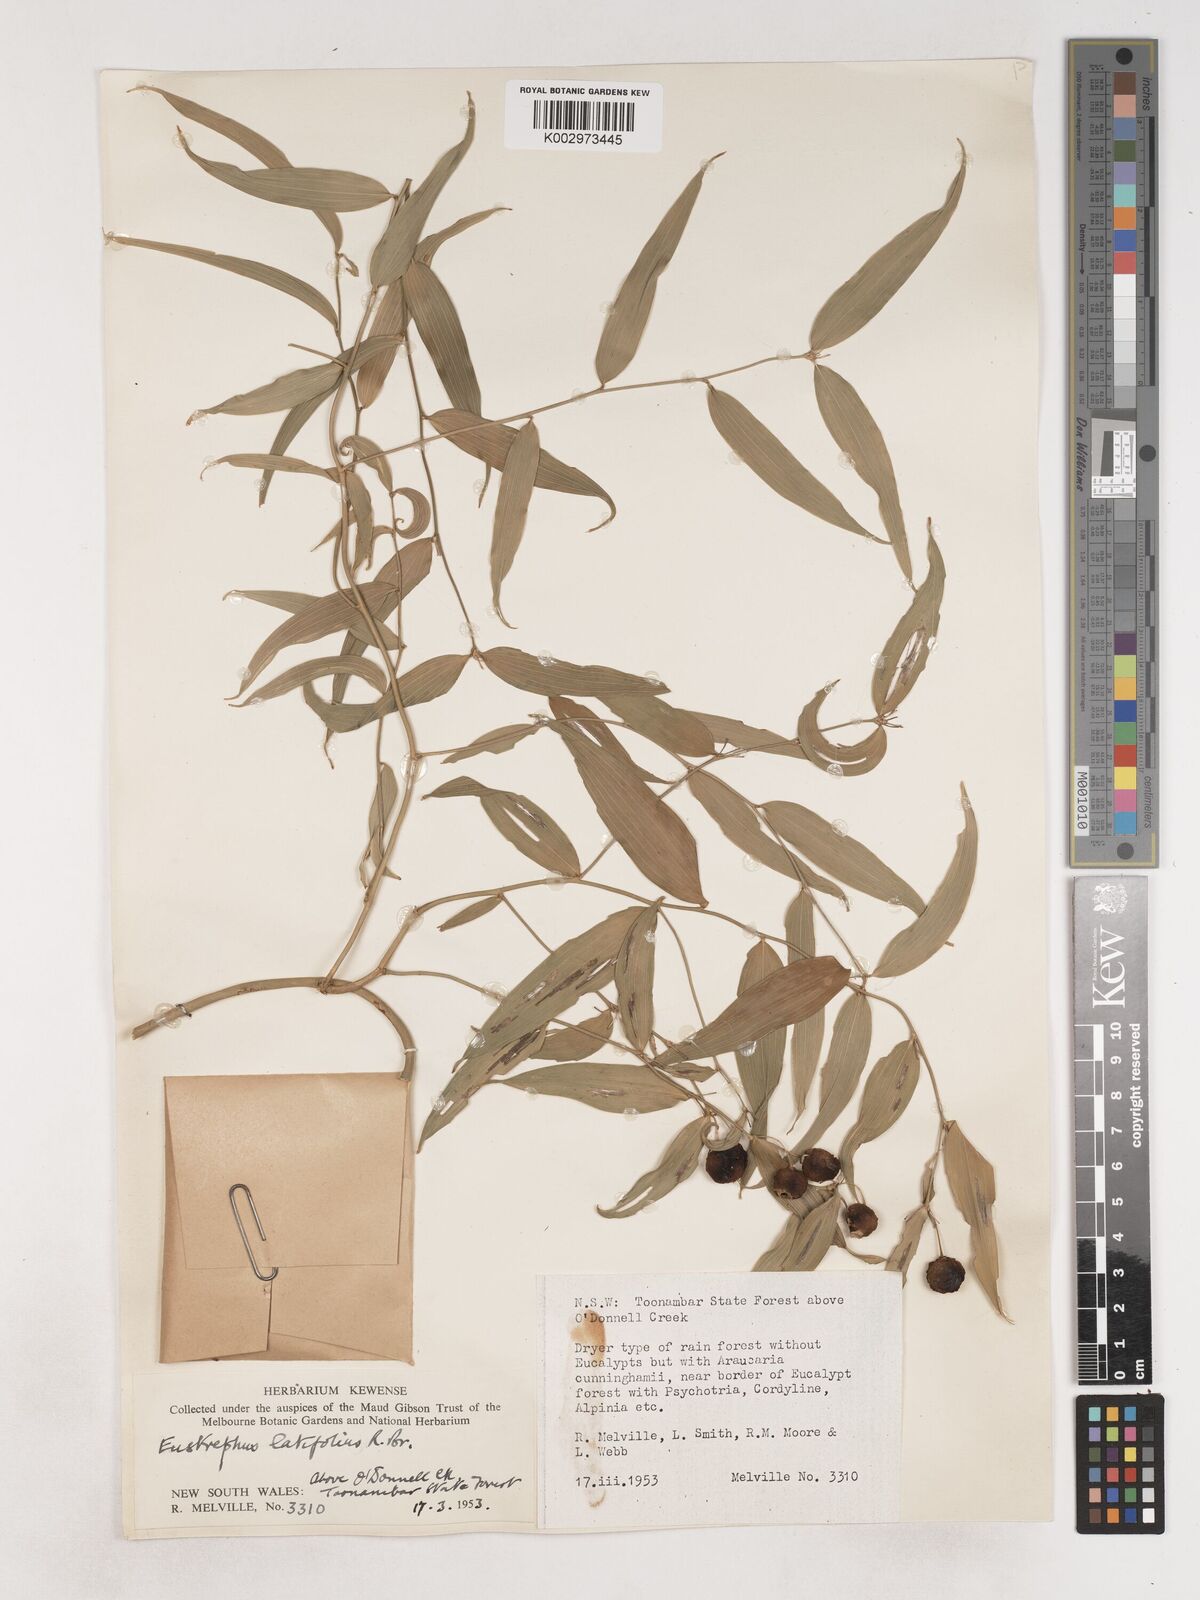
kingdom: Plantae
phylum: Tracheophyta
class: Liliopsida
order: Asparagales
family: Asparagaceae
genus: Eustrephus
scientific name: Eustrephus latifolius
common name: Orangevine
